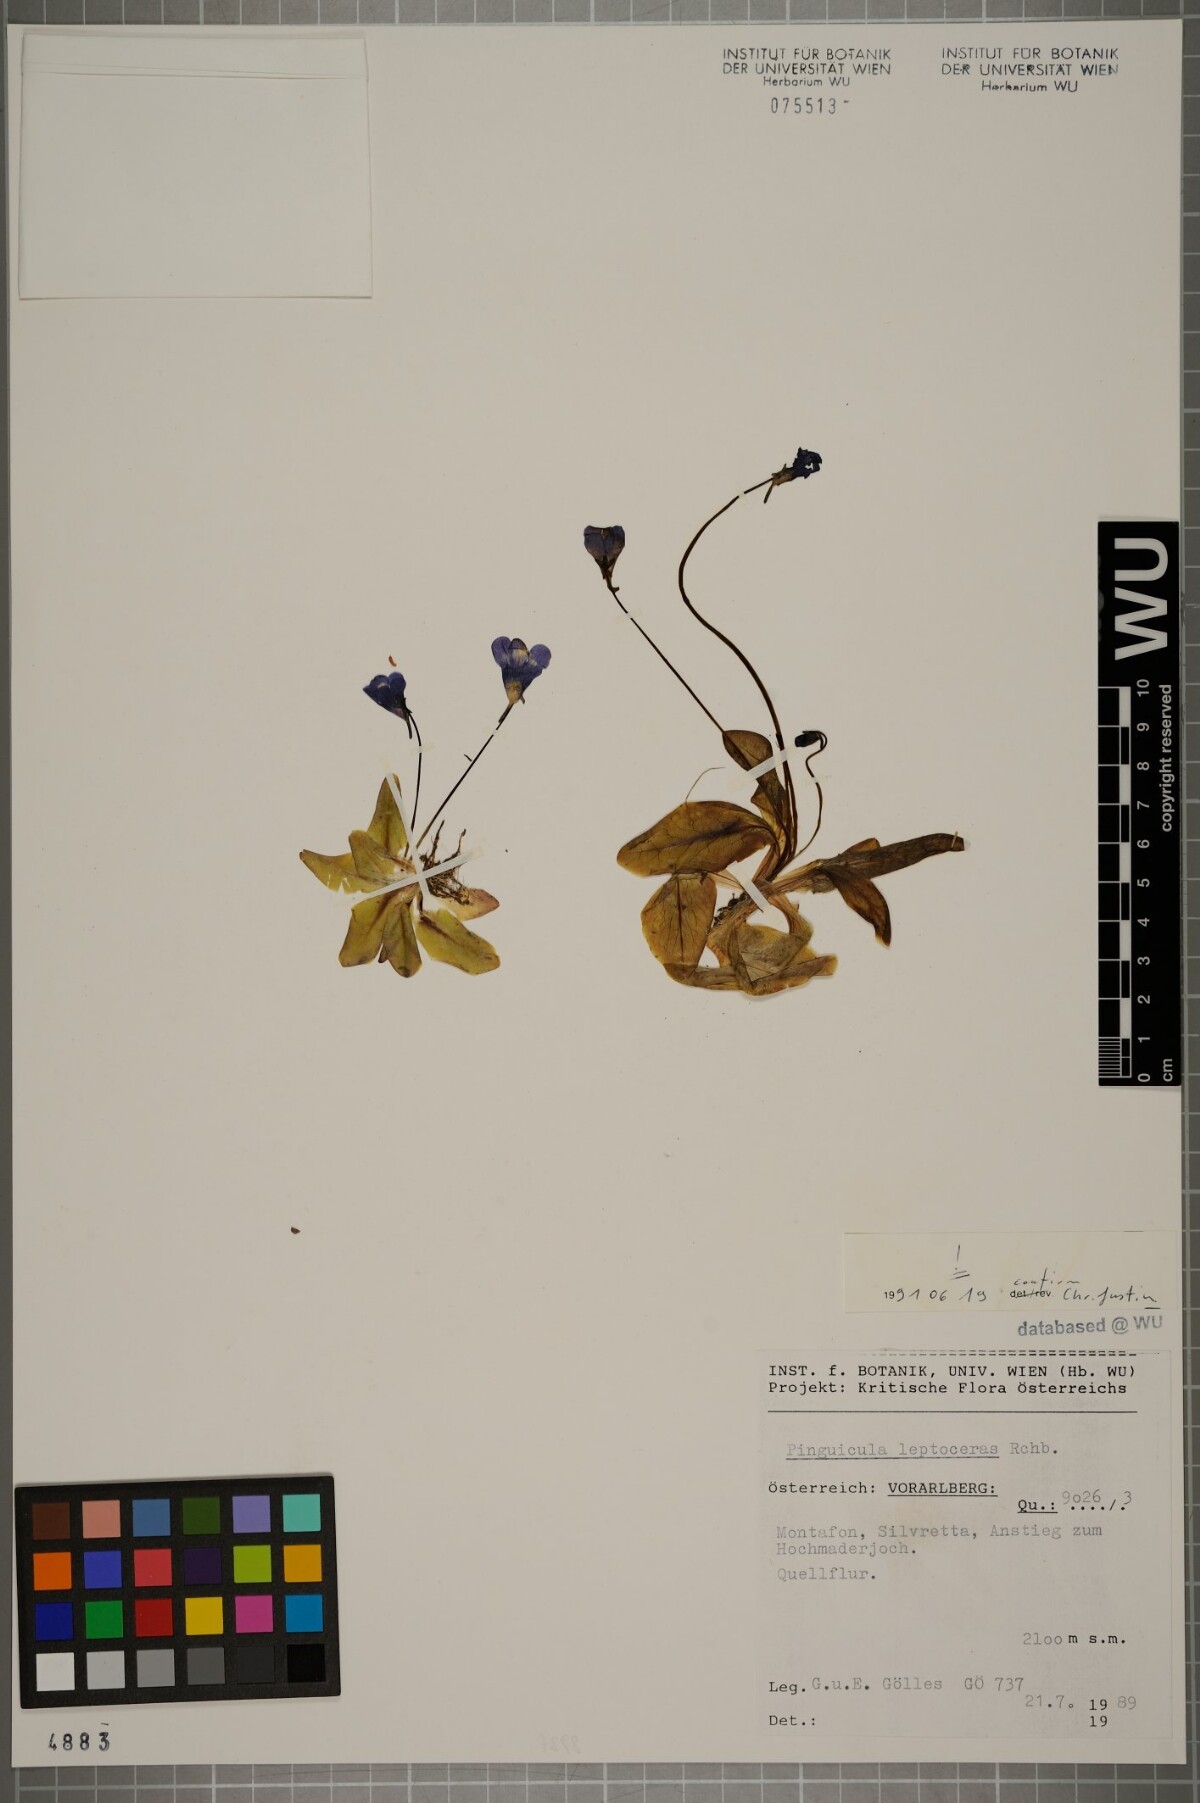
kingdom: Plantae
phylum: Tracheophyta
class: Magnoliopsida
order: Lamiales
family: Lentibulariaceae
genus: Pinguicula
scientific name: Pinguicula leptoceras
